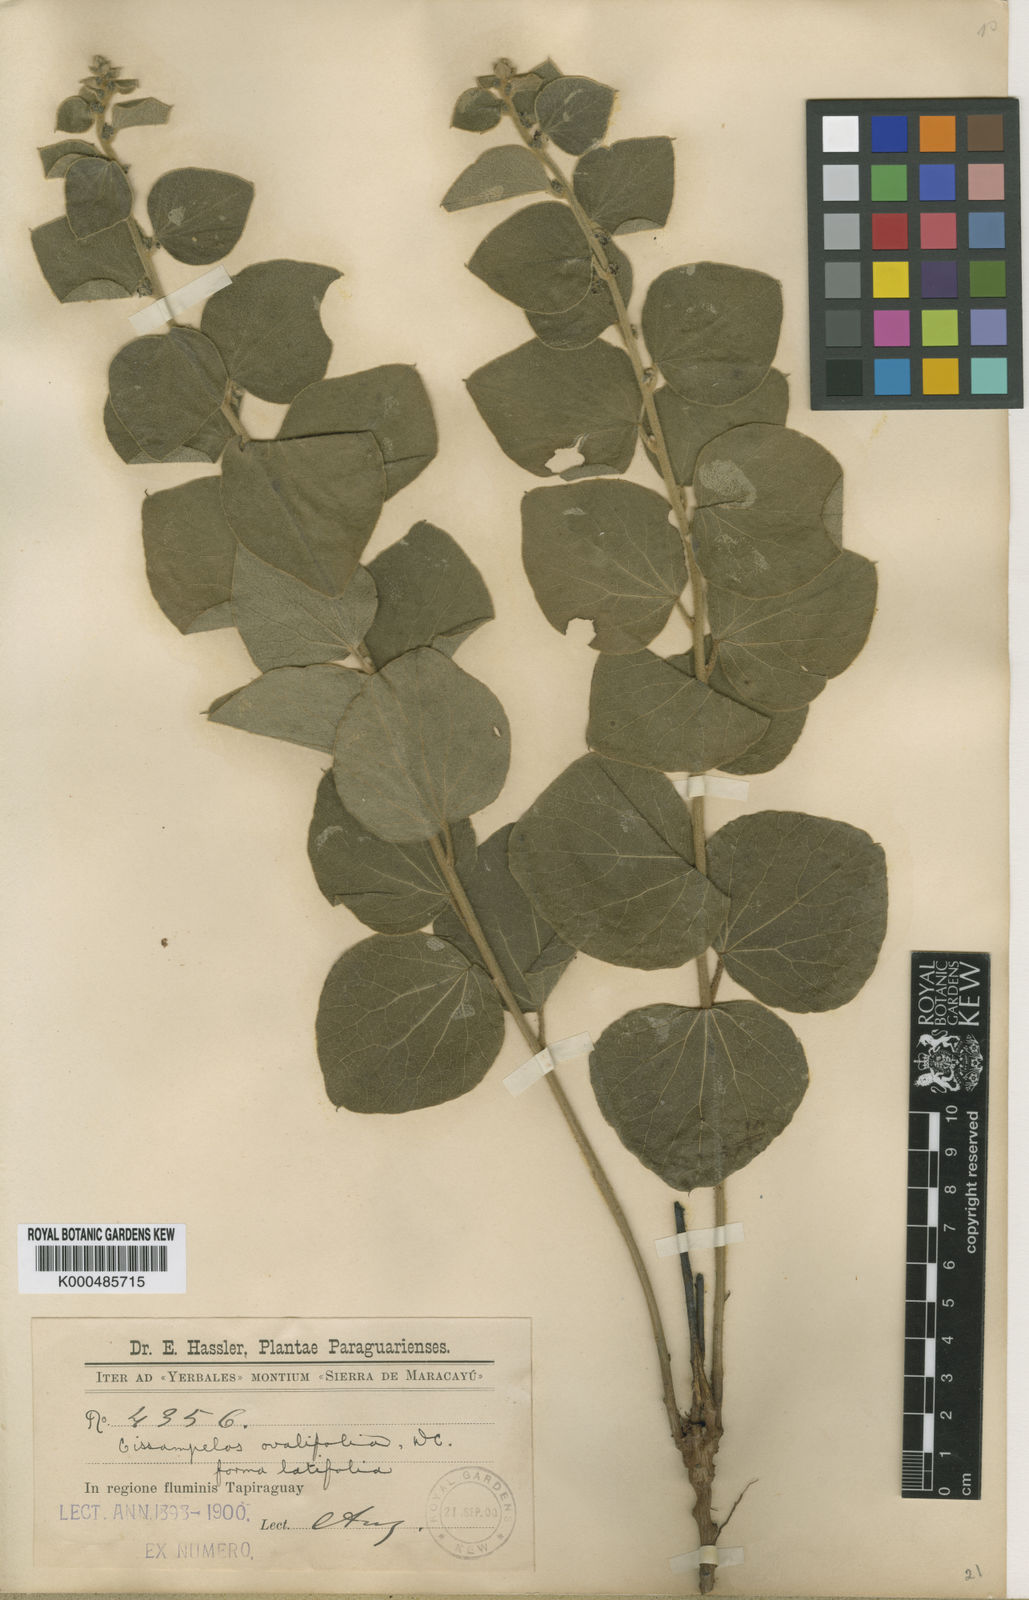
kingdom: Plantae
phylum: Tracheophyta
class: Magnoliopsida
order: Ranunculales
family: Menispermaceae
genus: Cissampelos
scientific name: Cissampelos ovalifolia
